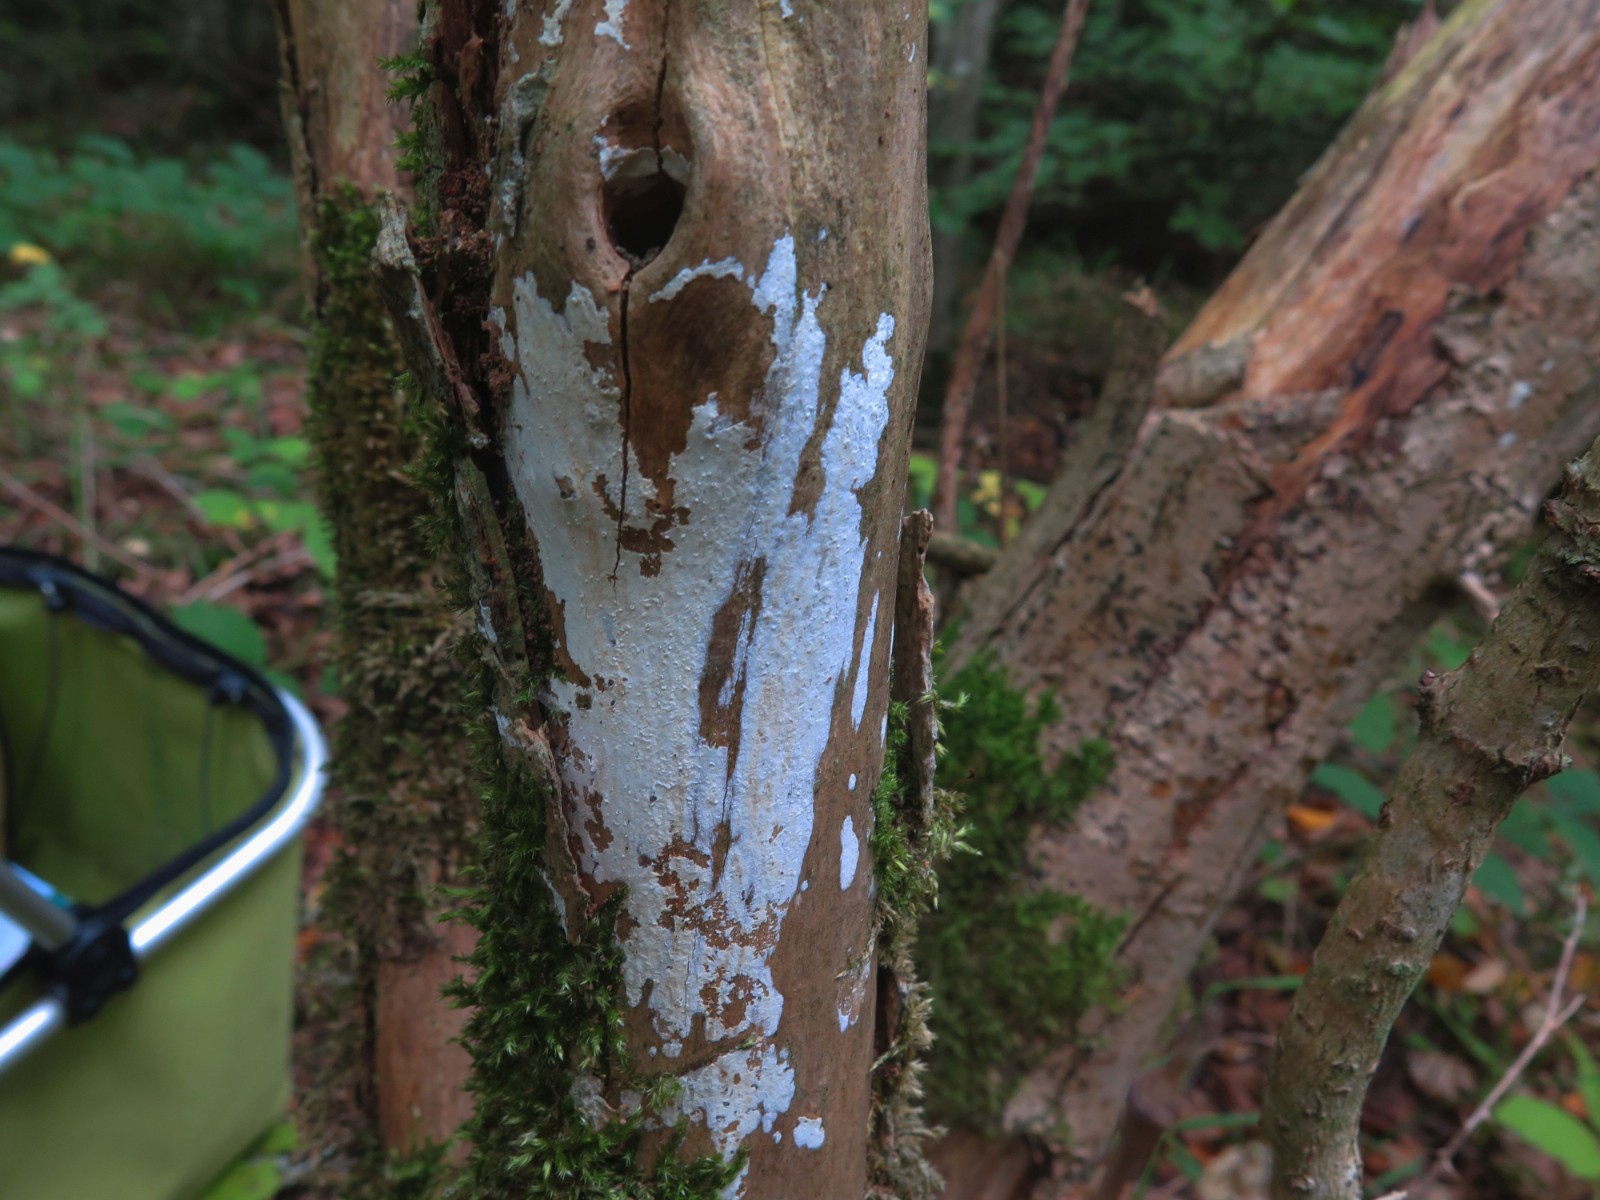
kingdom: Fungi
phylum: Basidiomycota
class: Agaricomycetes
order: Corticiales
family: Corticiaceae
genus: Lyomyces
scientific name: Lyomyces sambuci
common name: almindelig hyldehinde
